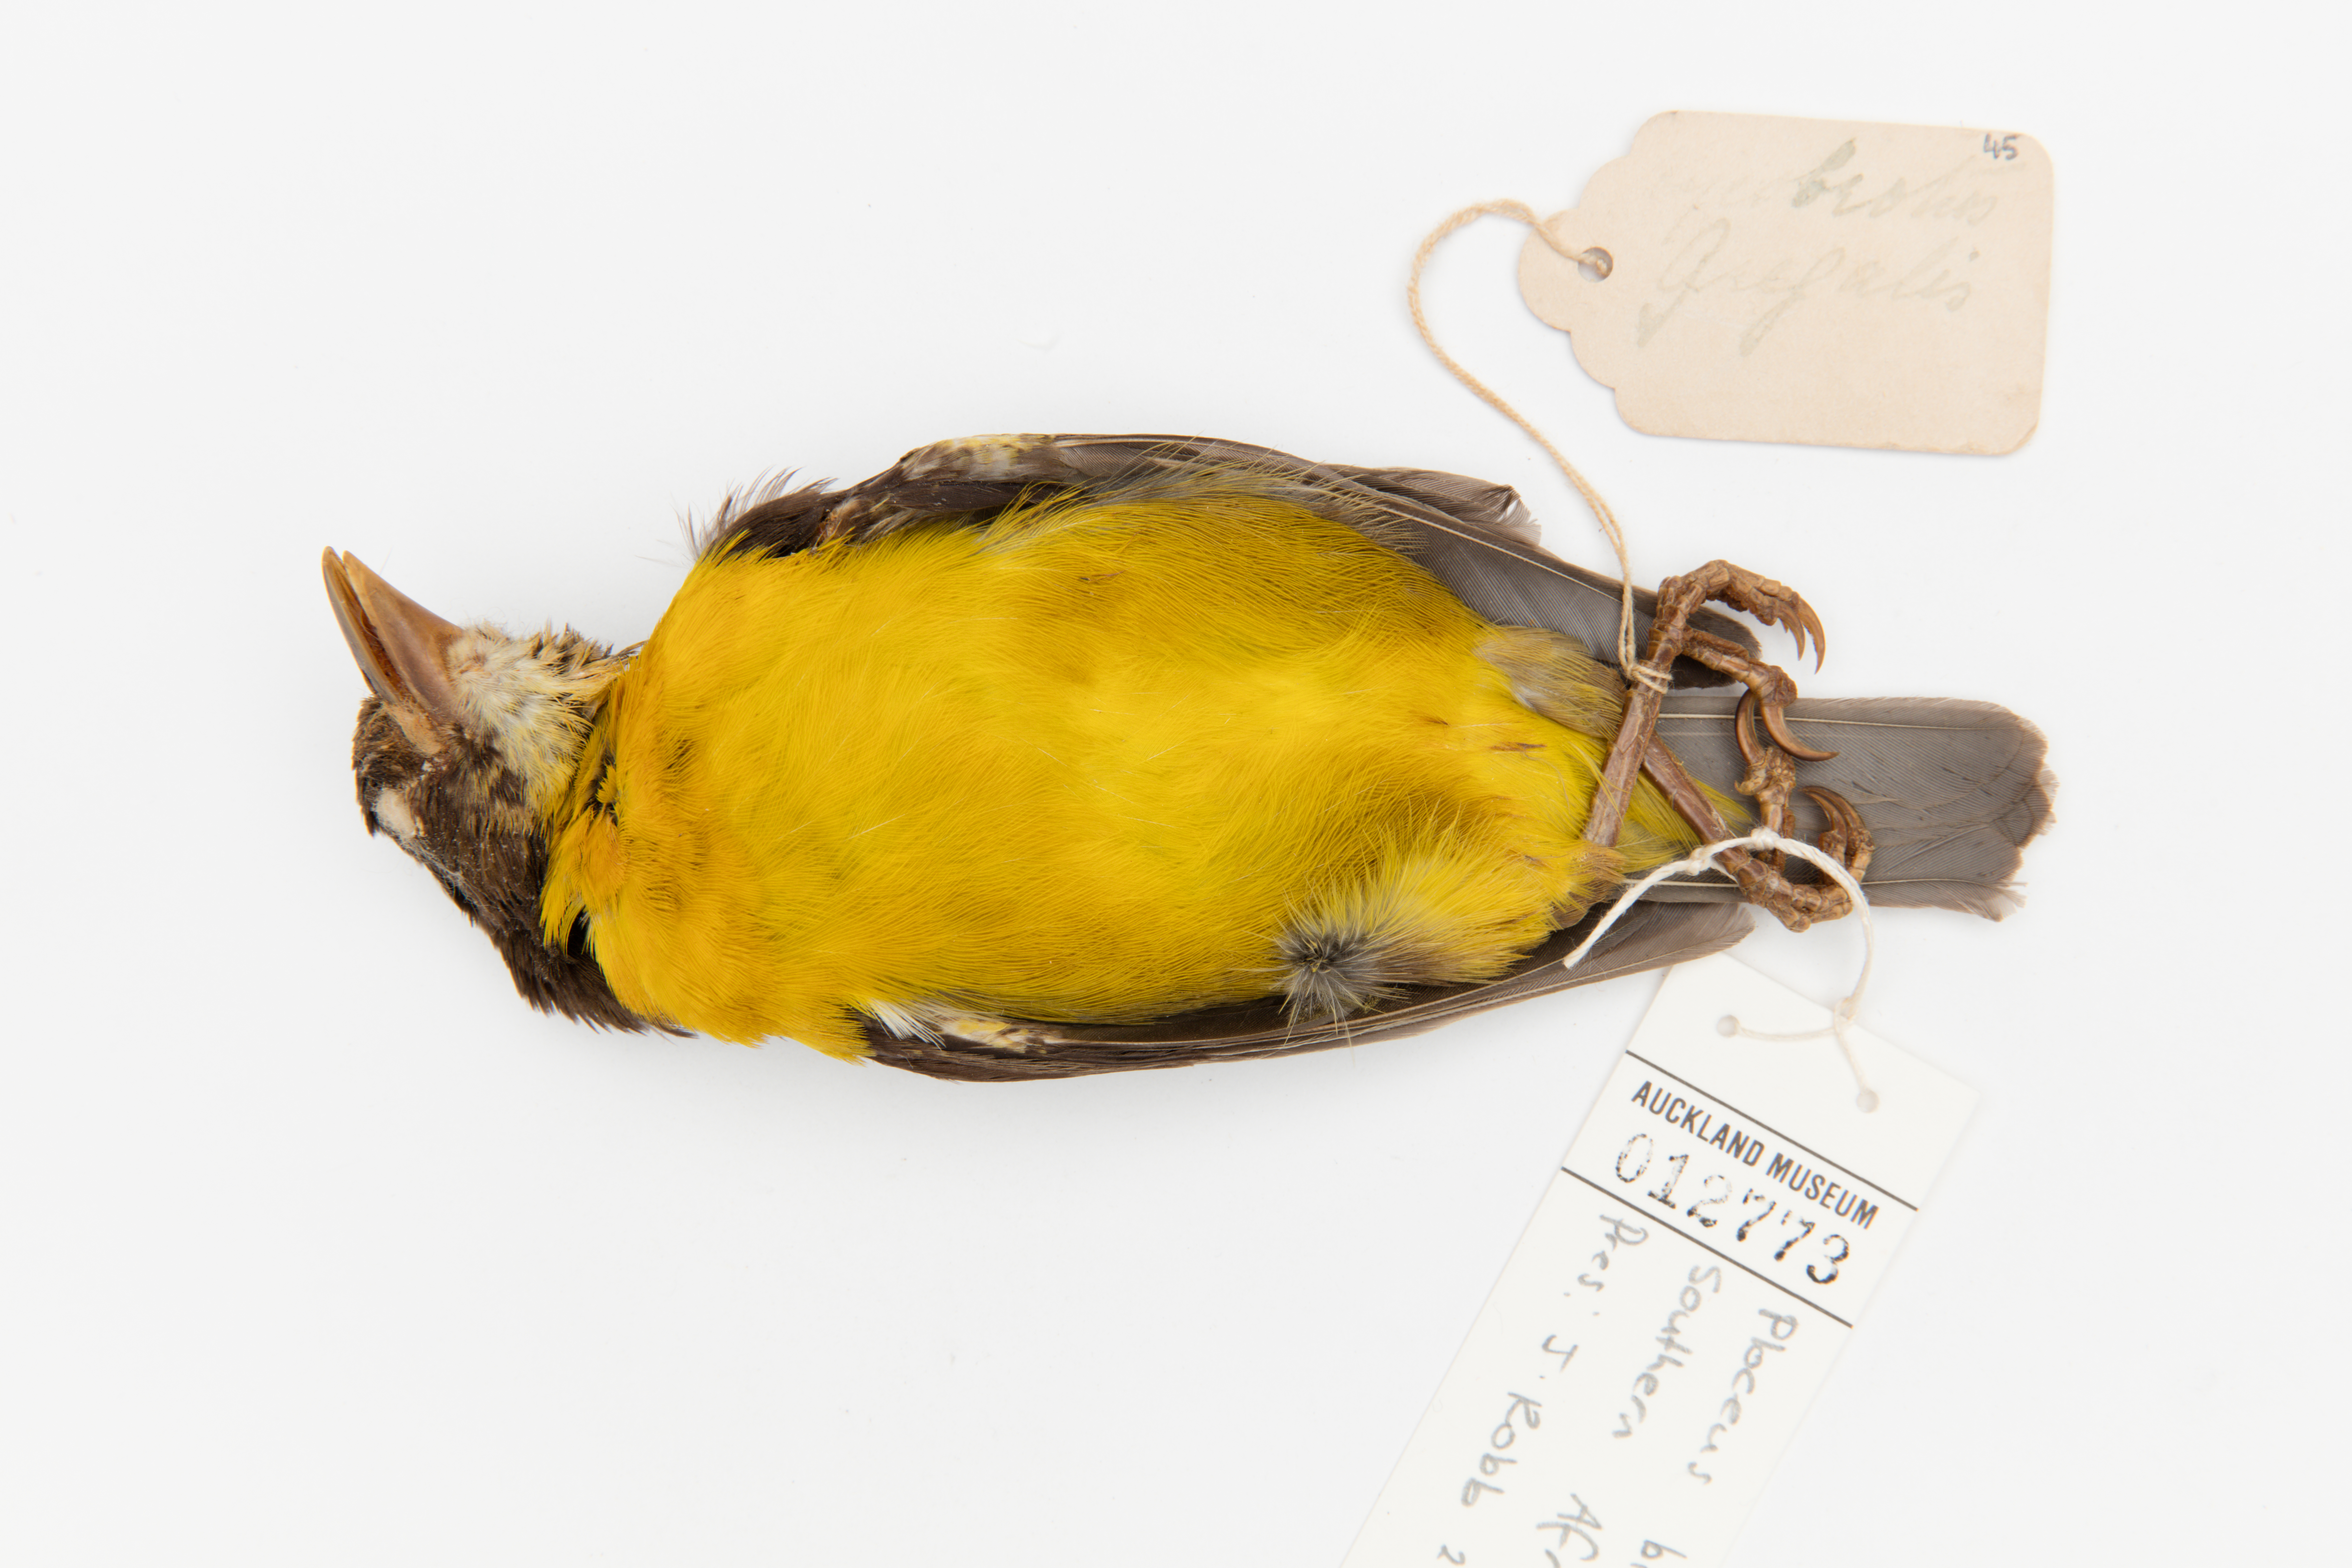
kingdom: Animalia
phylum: Chordata
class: Aves
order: Passeriformes
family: Ploceidae
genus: Ploceus
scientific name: Ploceus bicolor
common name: Dark-backed weaver
